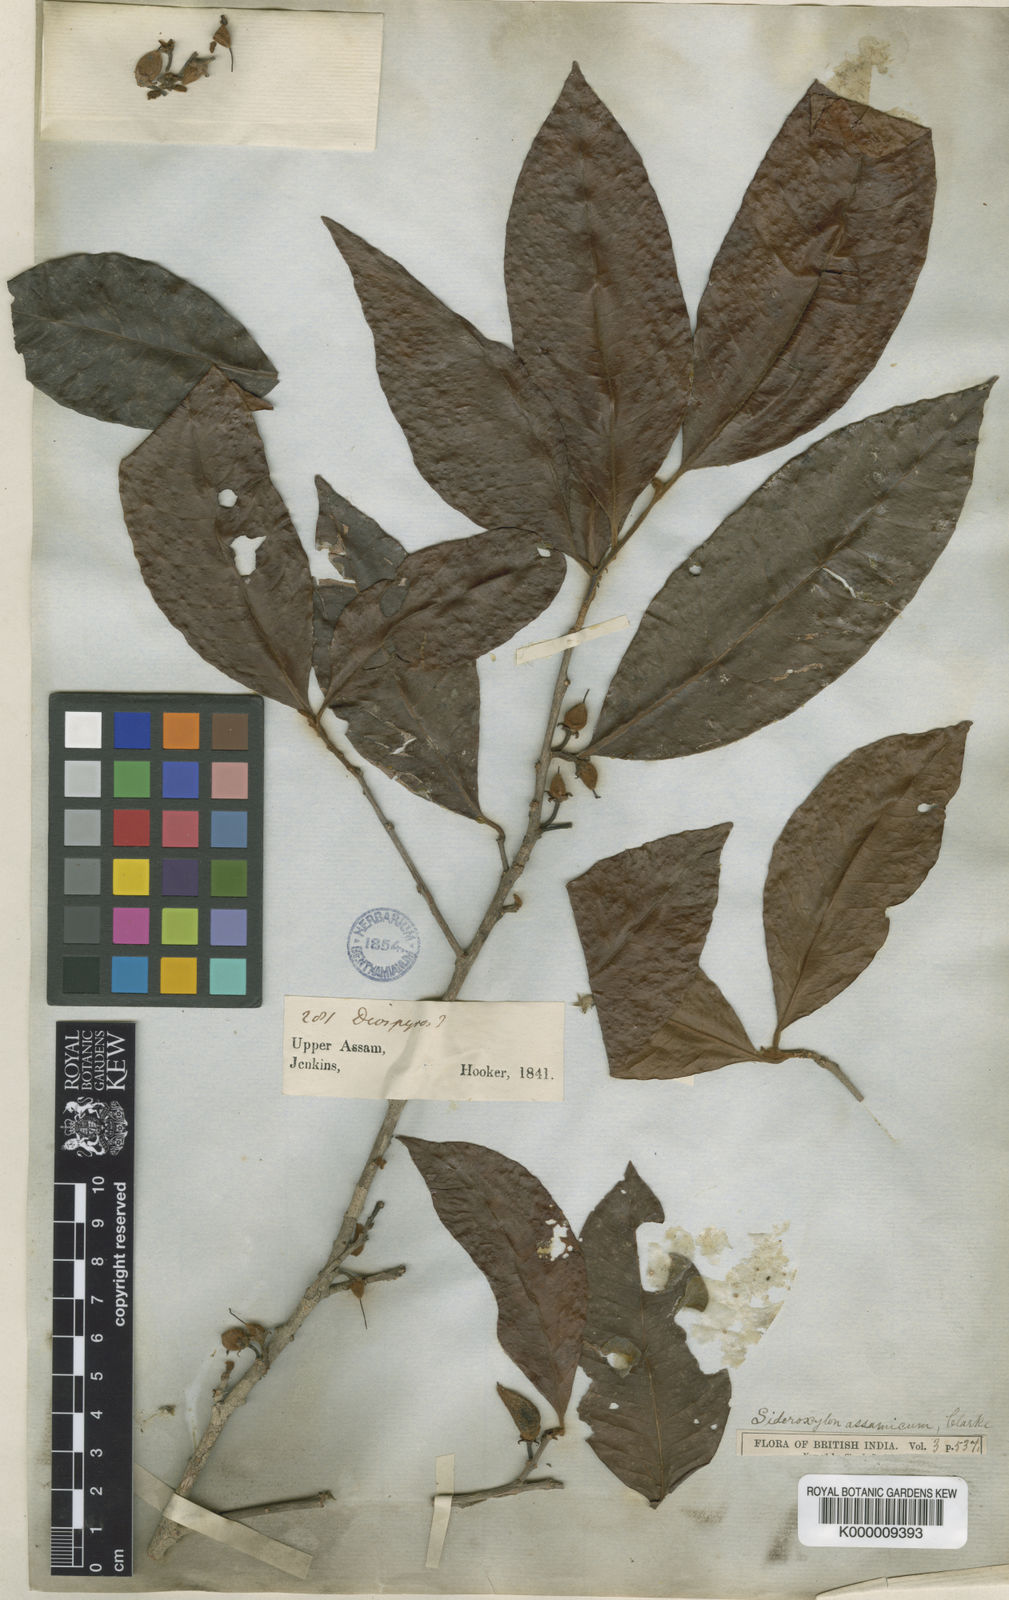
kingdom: Plantae
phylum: Tracheophyta
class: Magnoliopsida
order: Ericales
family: Sapotaceae
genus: Xantolis
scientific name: Xantolis assamica
